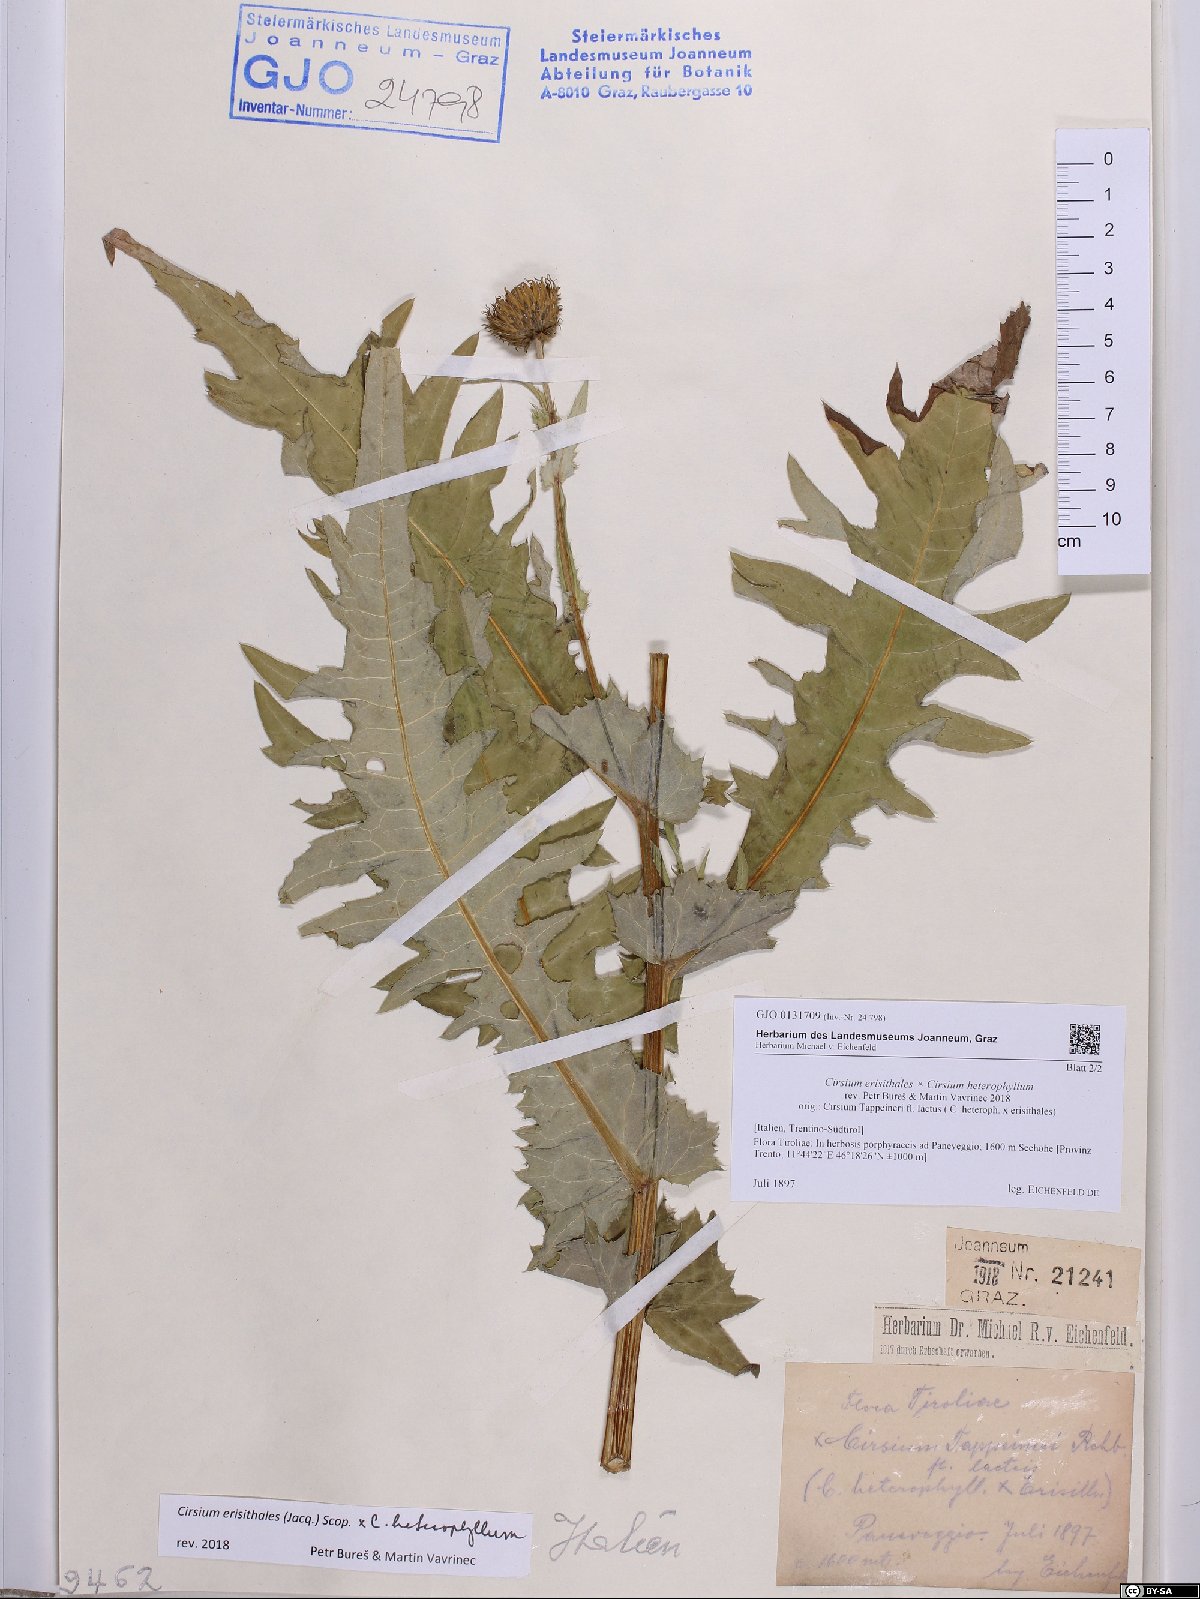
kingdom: Plantae
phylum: Tracheophyta
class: Magnoliopsida
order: Asterales
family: Asteraceae
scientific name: Asteraceae
